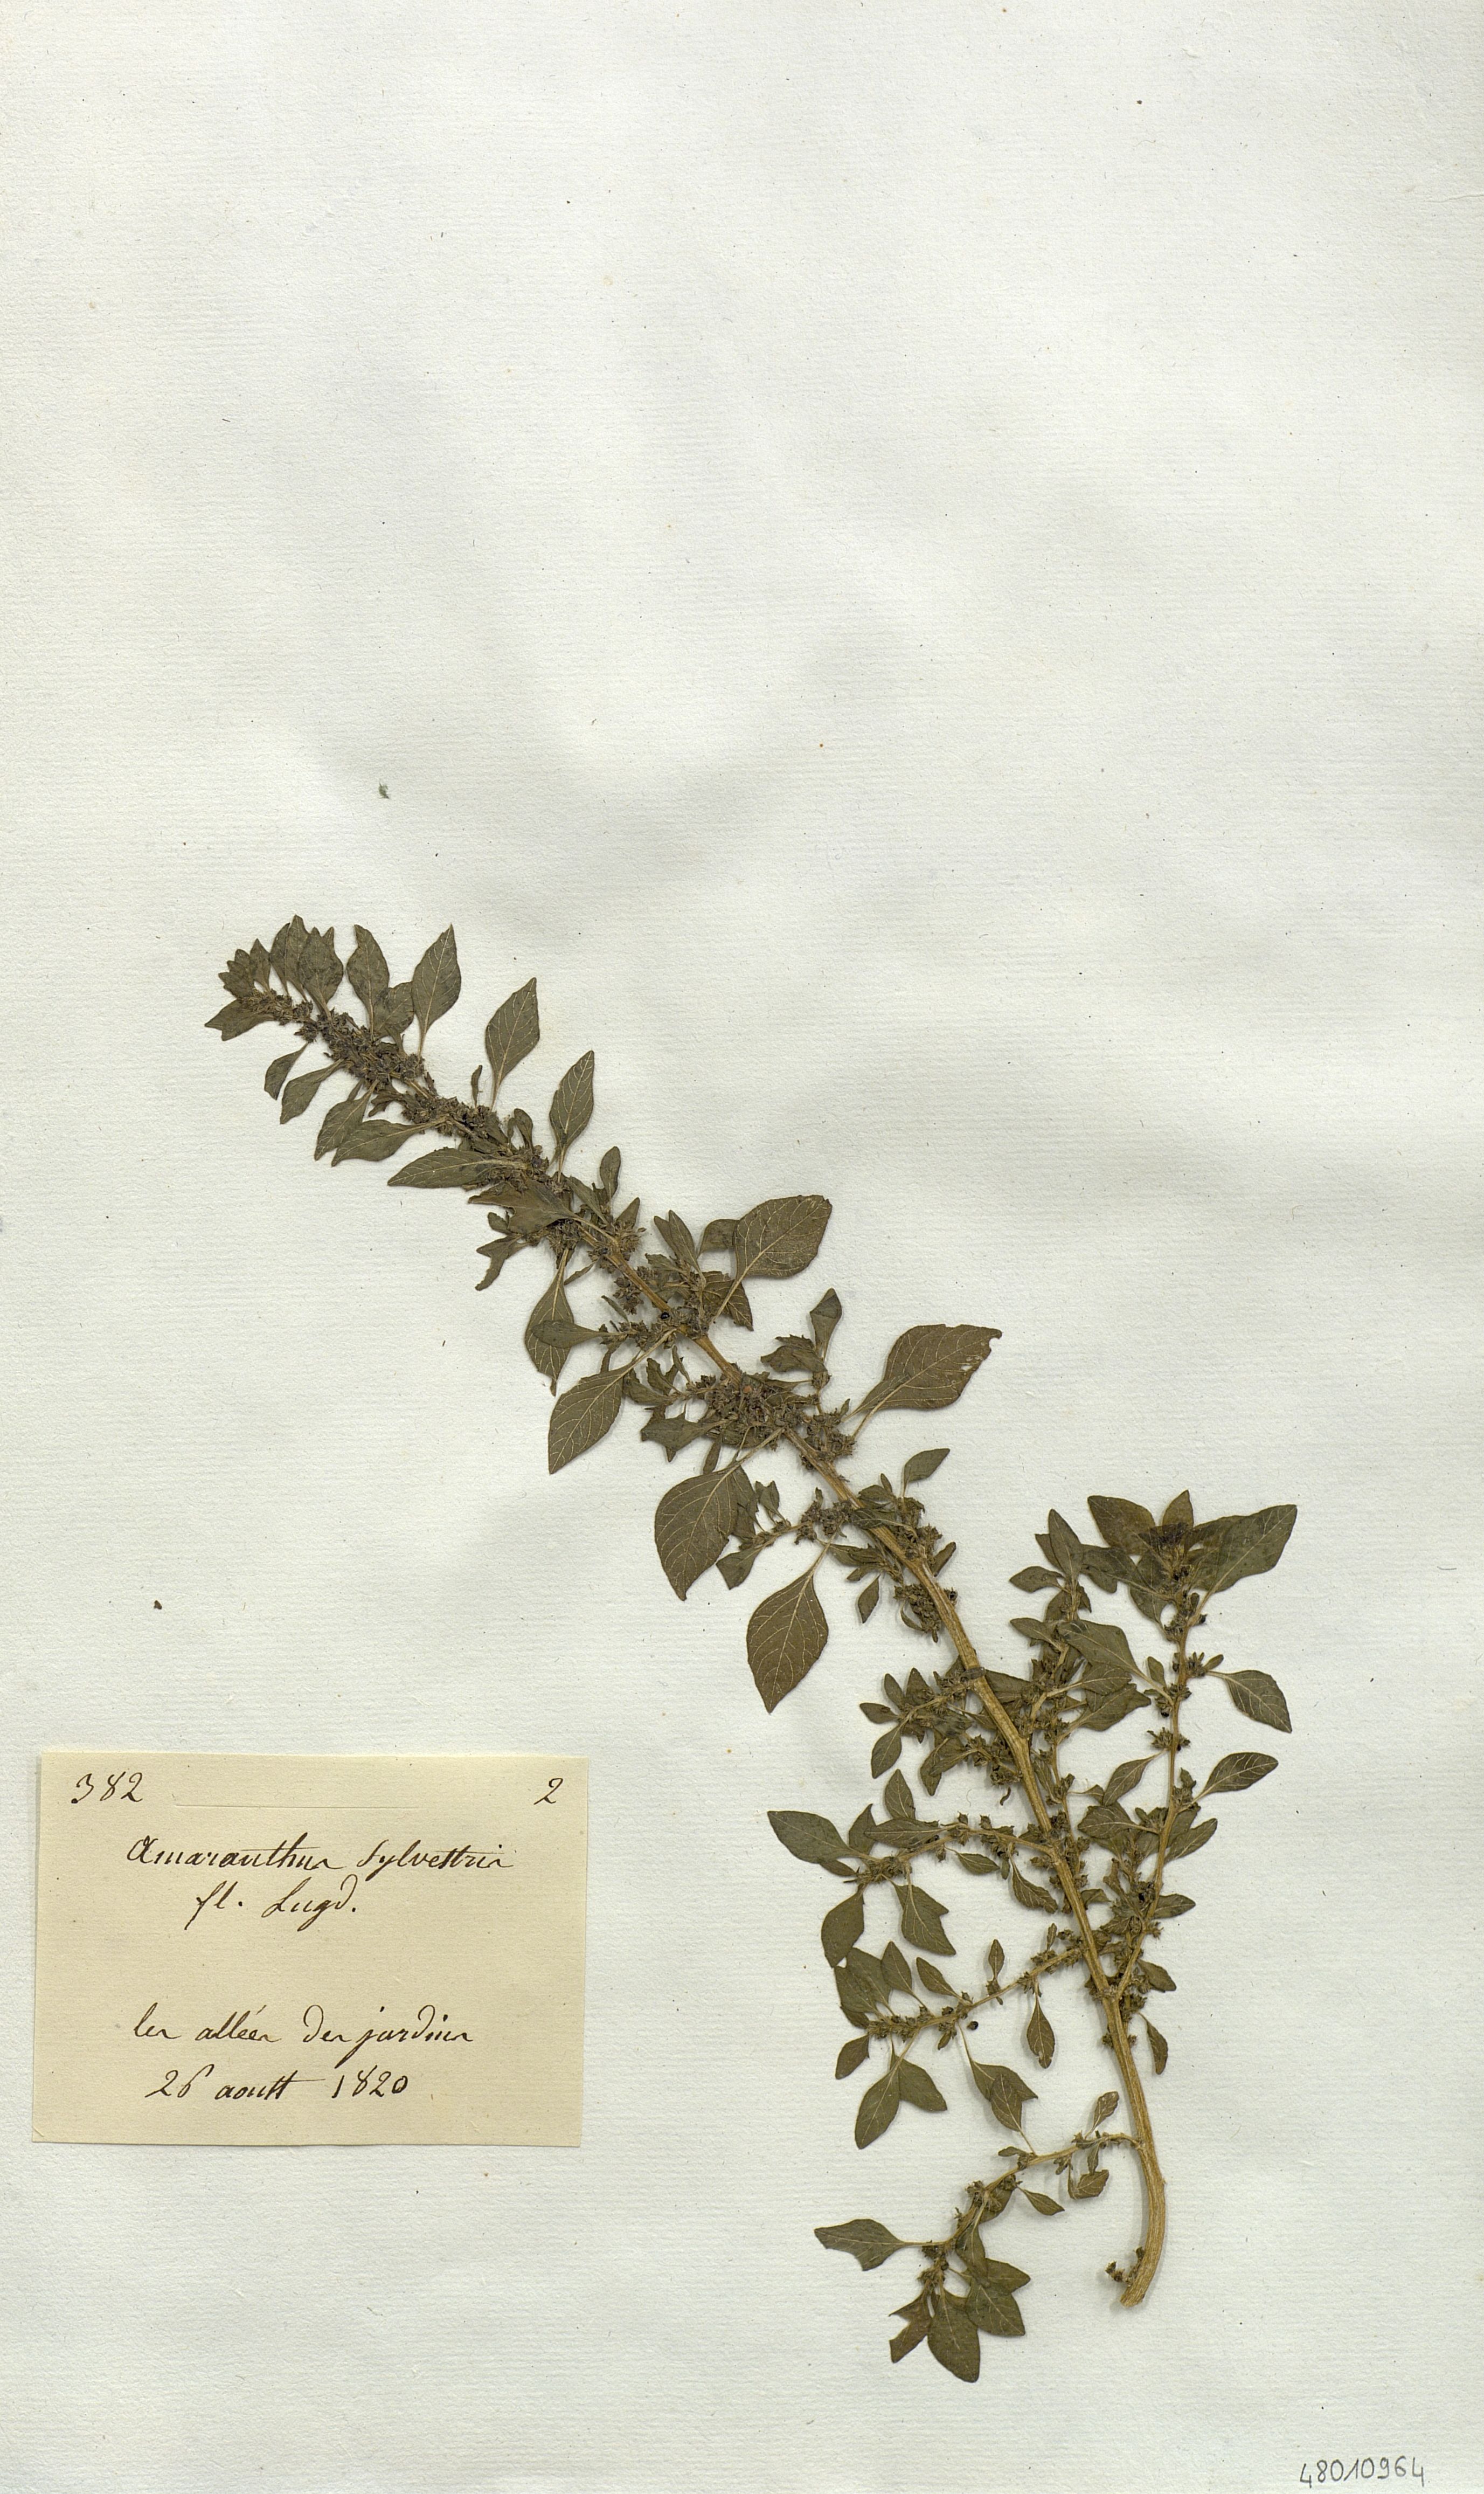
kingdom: Plantae
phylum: Tracheophyta
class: Magnoliopsida
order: Caryophyllales
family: Amaranthaceae
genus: Amaranthus
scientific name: Amaranthus graecizans
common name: Mediterranean amaranth
